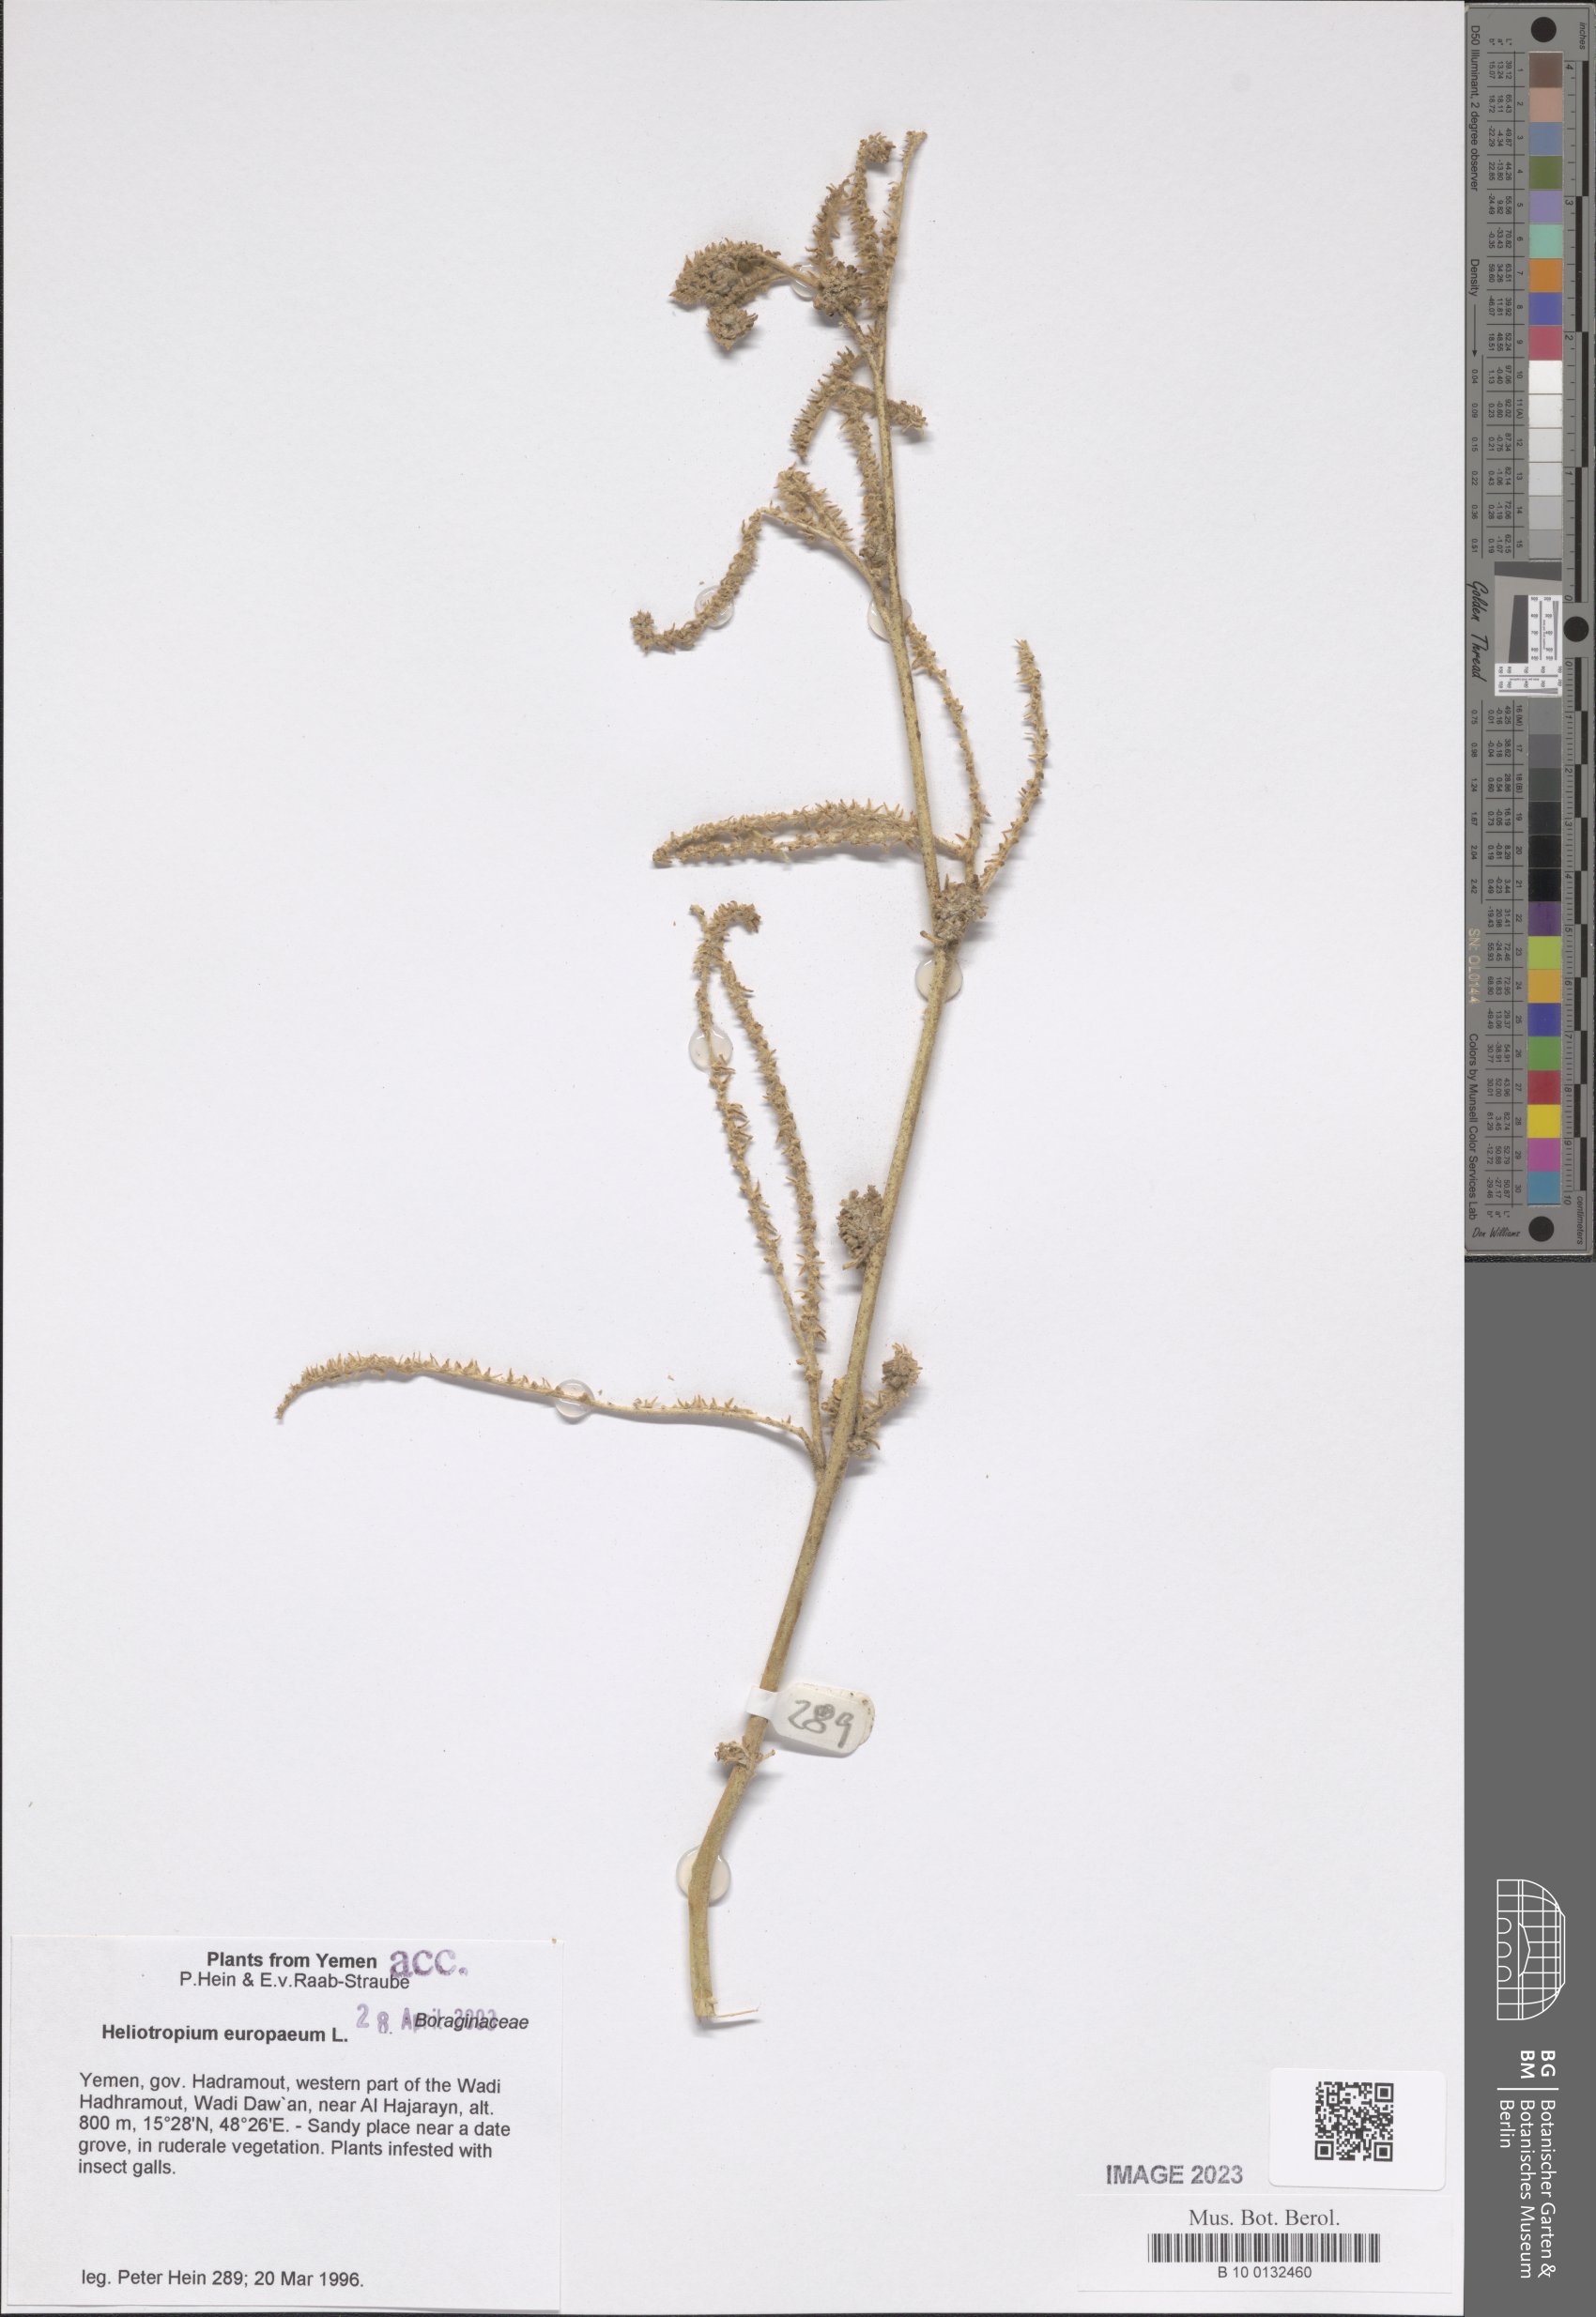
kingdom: Plantae
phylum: Tracheophyta
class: Magnoliopsida
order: Boraginales
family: Heliotropiaceae
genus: Heliotropium
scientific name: Heliotropium europaeum
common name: European heliotrope
